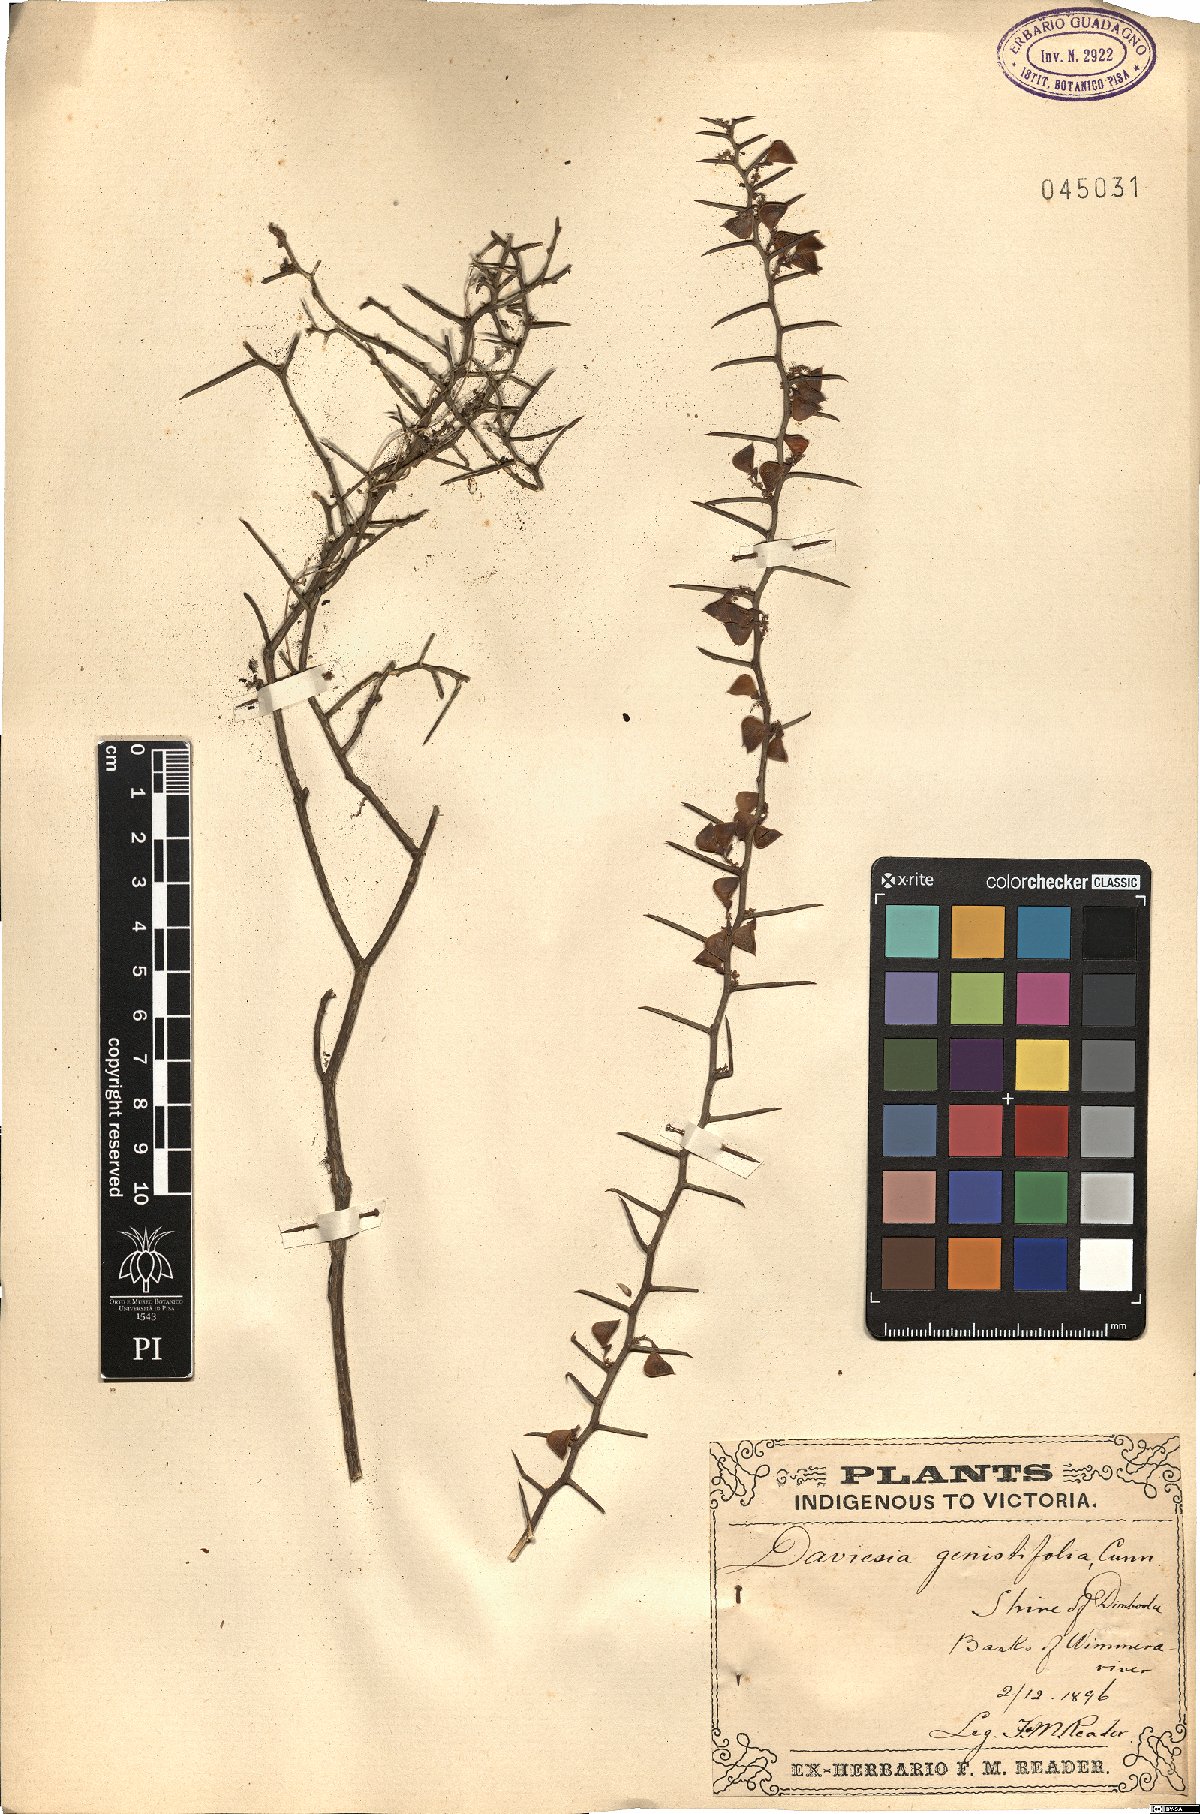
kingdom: Plantae
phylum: Tracheophyta
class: Magnoliopsida
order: Fabales
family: Fabaceae
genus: Daviesia
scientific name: Daviesia genistifolia
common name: Broom bitter-pea
